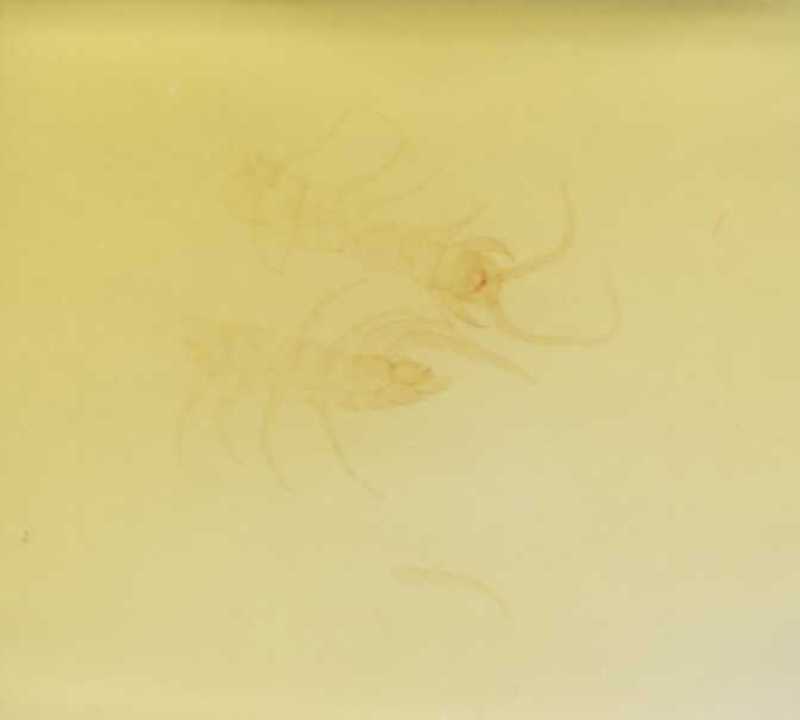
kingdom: Animalia
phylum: Arthropoda
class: Chilopoda
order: Lithobiomorpha
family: Lithobiidae
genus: Lithobius
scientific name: Lithobius dahlii
